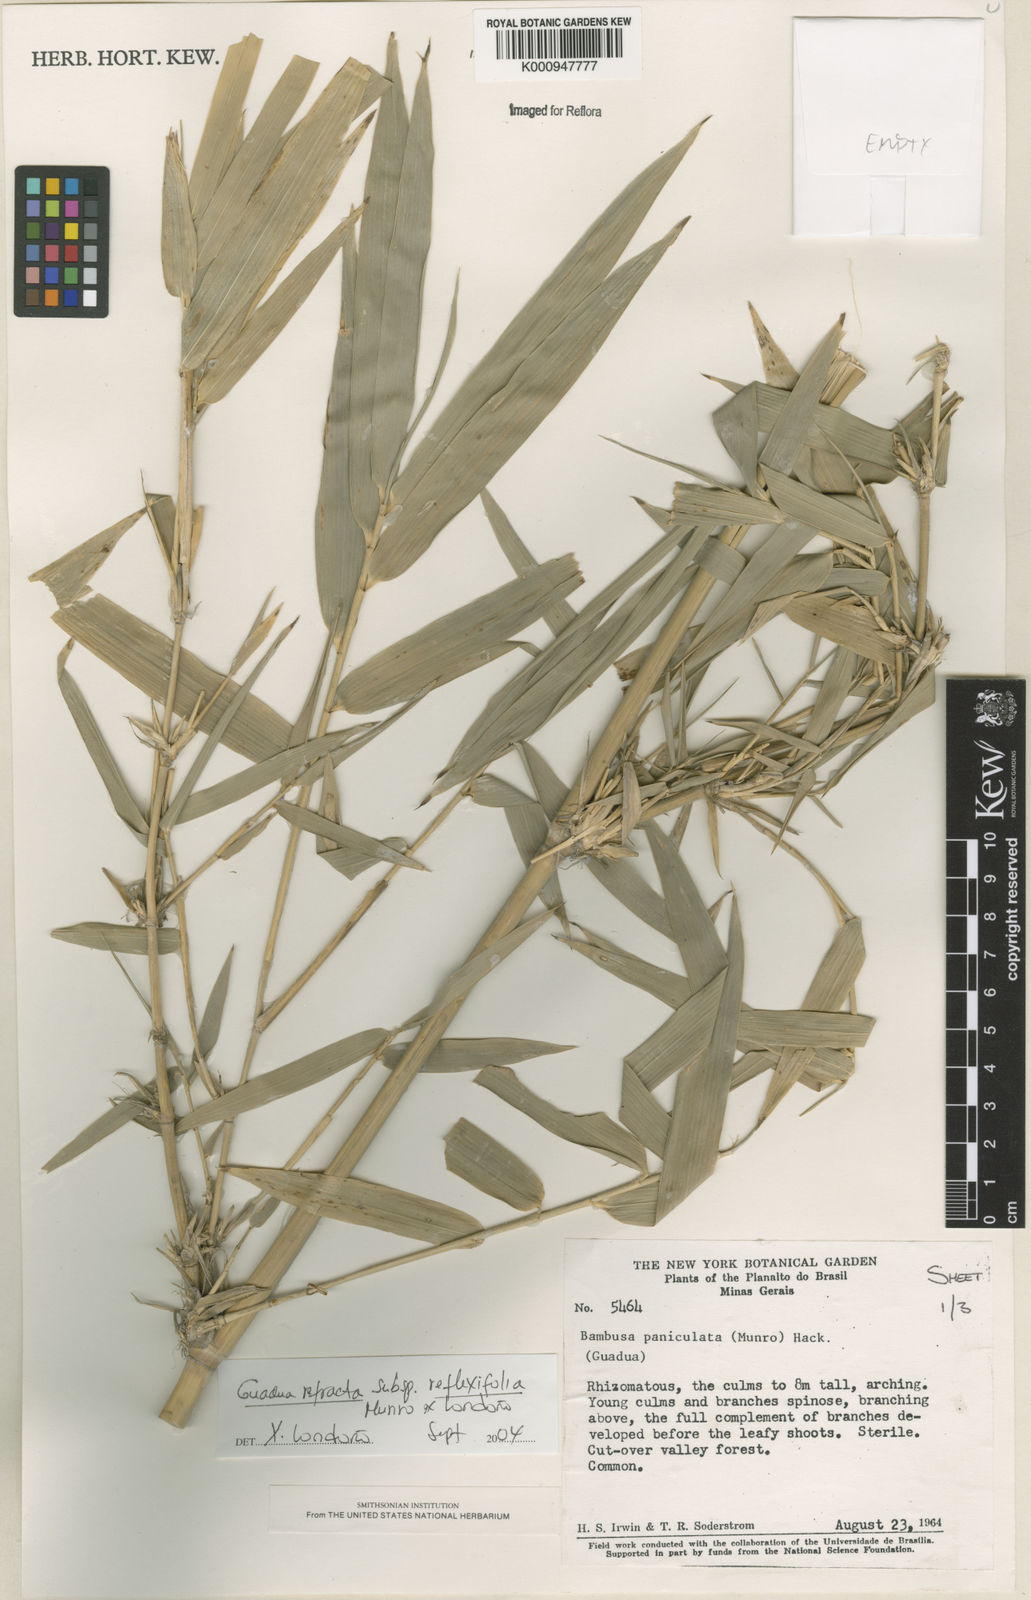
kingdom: Plantae
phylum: Tracheophyta
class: Liliopsida
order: Poales
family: Poaceae
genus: Guadua
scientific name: Guadua
